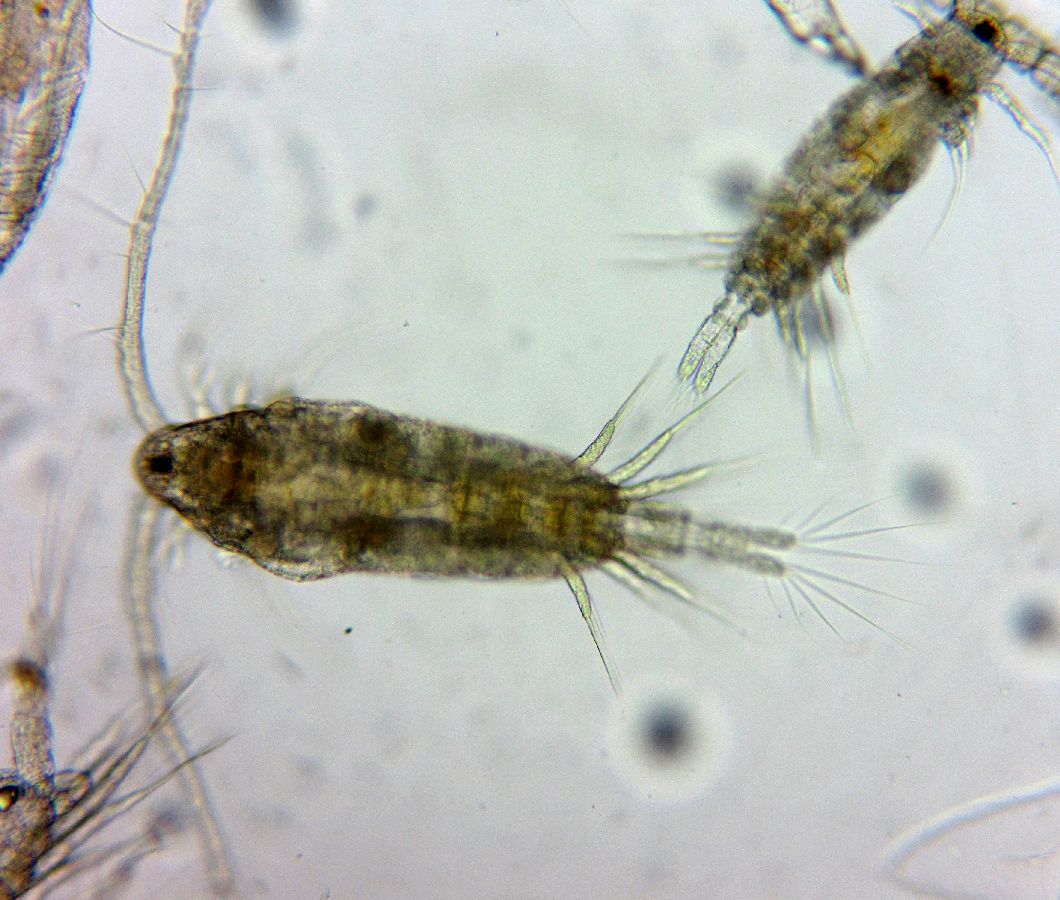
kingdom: Animalia
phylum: Arthropoda
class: Copepoda
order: Calanoida
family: Acartiidae
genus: Acartia
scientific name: Acartia
